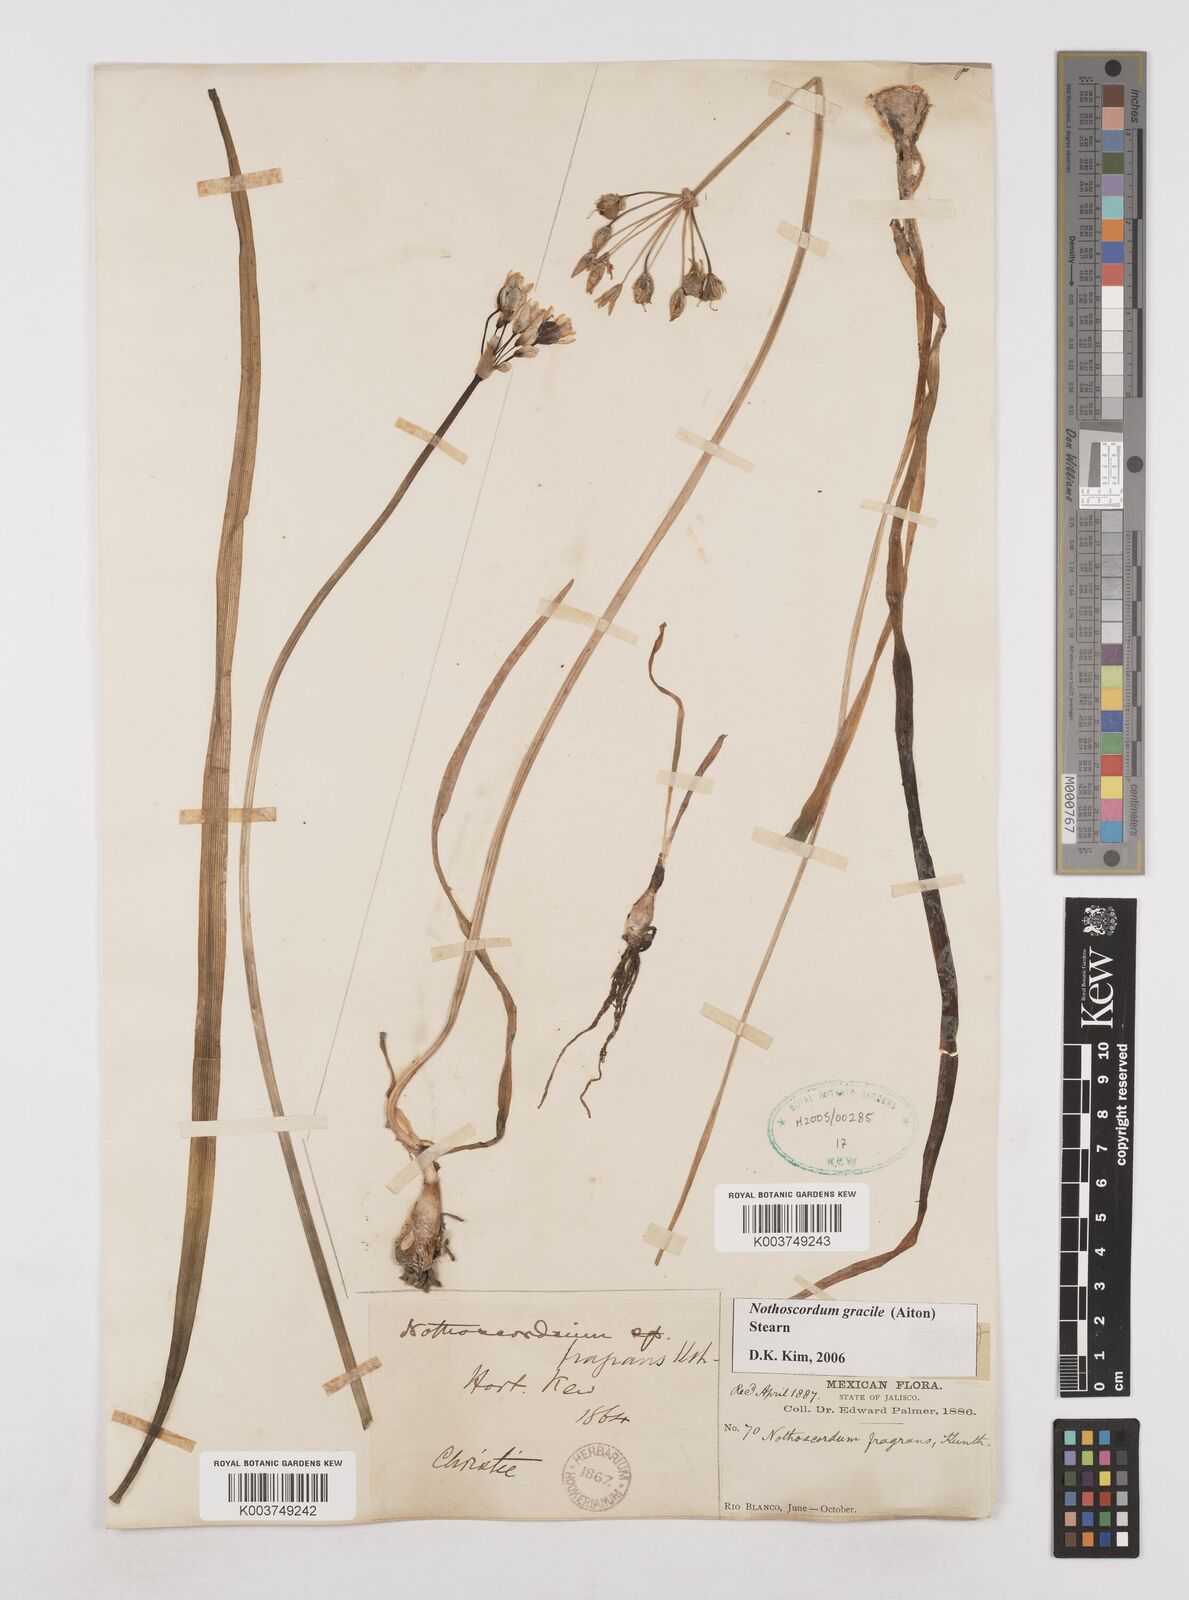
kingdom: Plantae
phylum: Tracheophyta
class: Liliopsida
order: Asparagales
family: Amaryllidaceae
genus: Nothoscordum
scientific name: Nothoscordum gracile
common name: Slender false garlic
